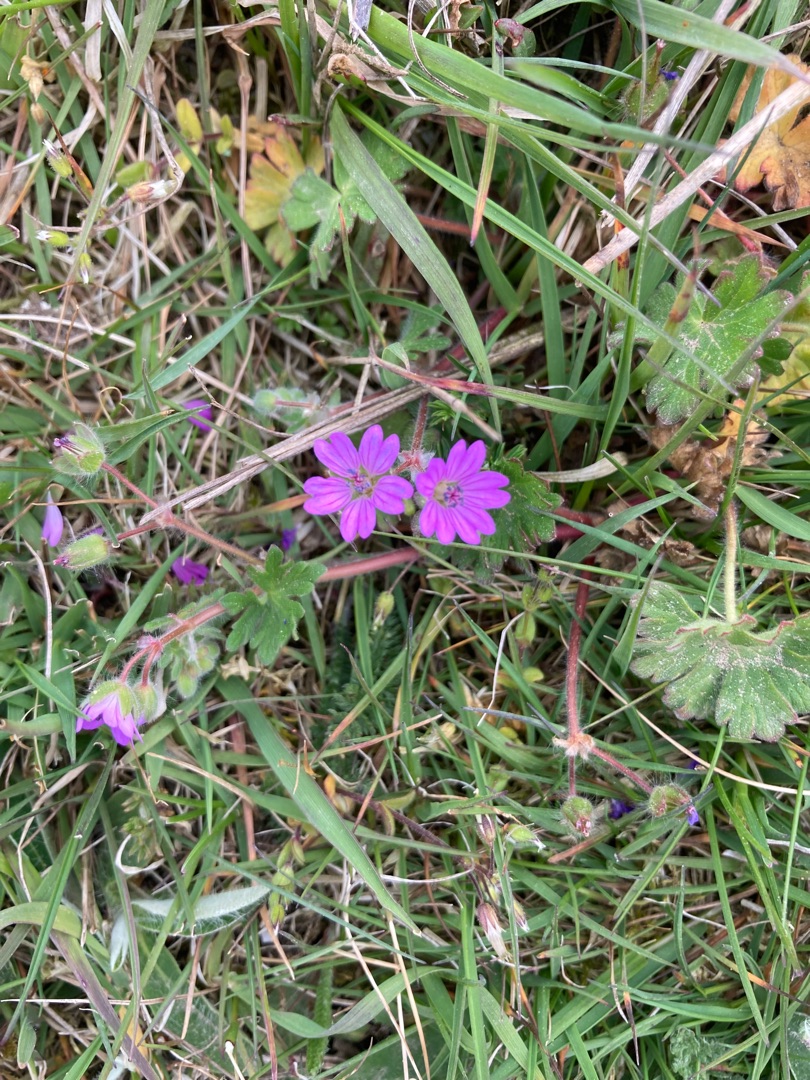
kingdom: Plantae
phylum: Tracheophyta
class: Magnoliopsida
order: Geraniales
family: Geraniaceae
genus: Geranium
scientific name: Geranium pyrenaicum
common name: Pyrenæisk storkenæb
